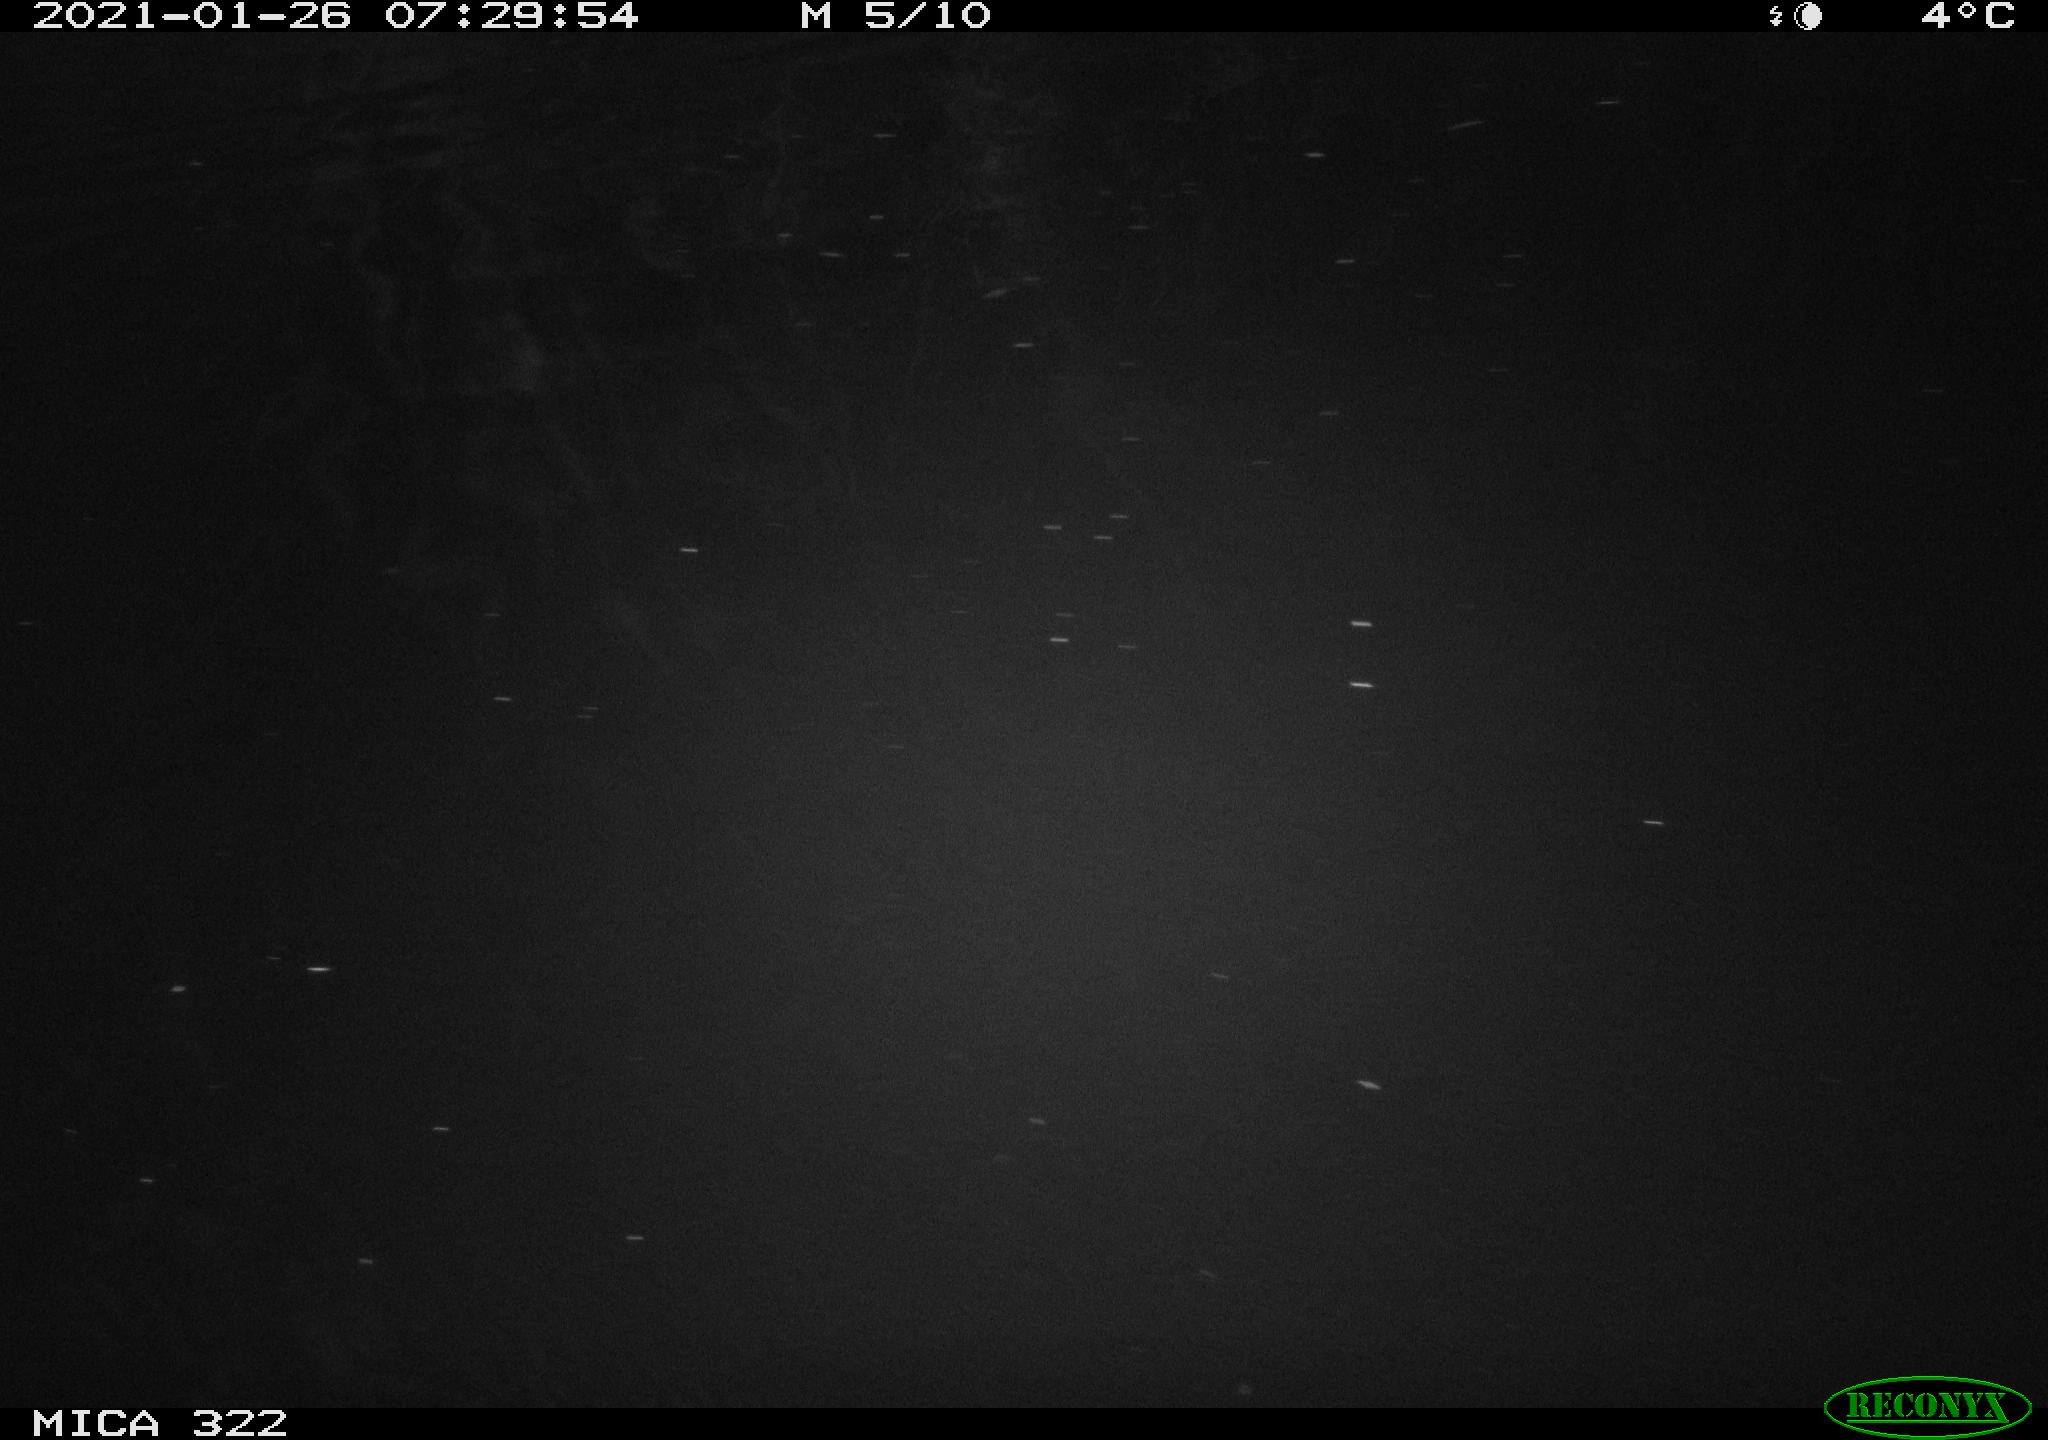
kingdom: Animalia
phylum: Chordata
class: Mammalia
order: Rodentia
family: Muridae
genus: Rattus
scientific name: Rattus norvegicus
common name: Brown rat
